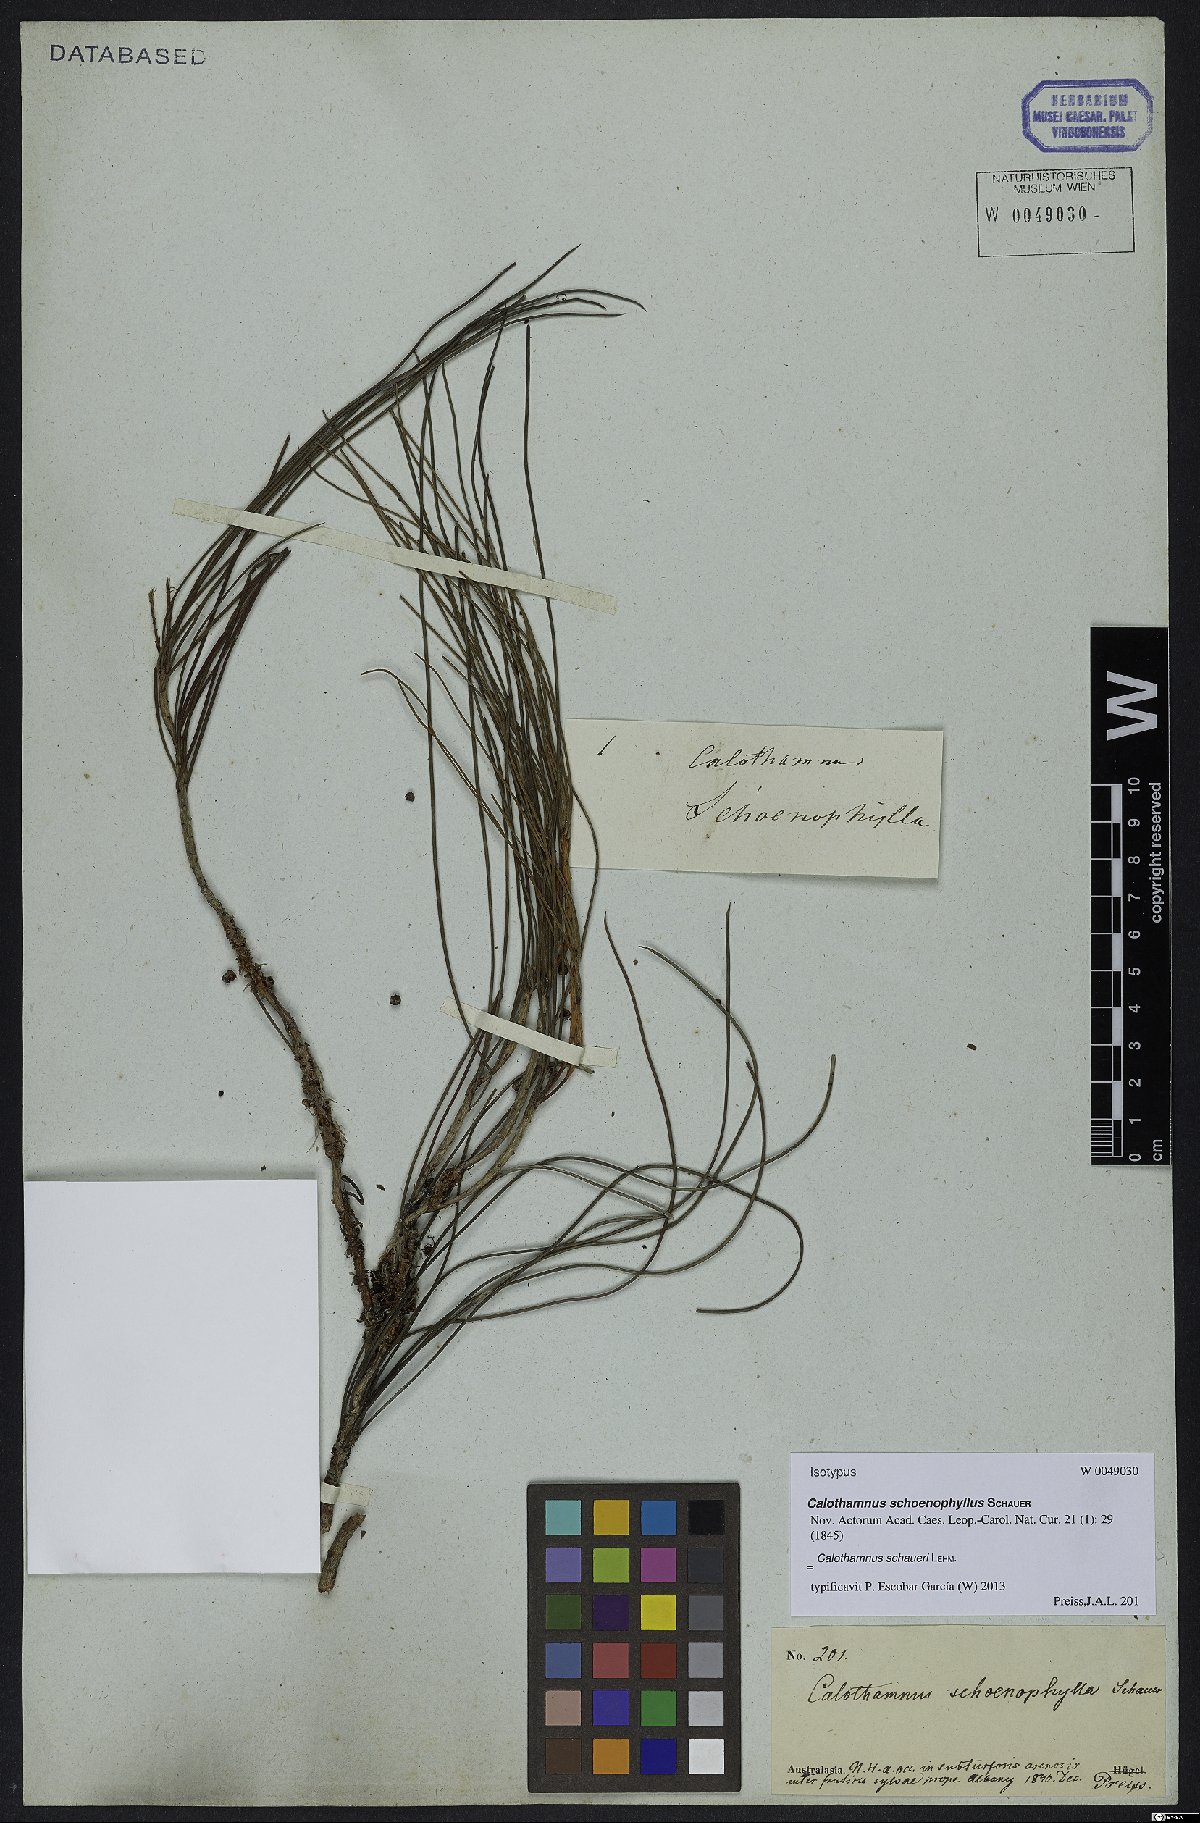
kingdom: Plantae
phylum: Tracheophyta
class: Magnoliopsida
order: Myrtales
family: Myrtaceae
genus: Melaleuca
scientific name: Melaleuca schaueri
